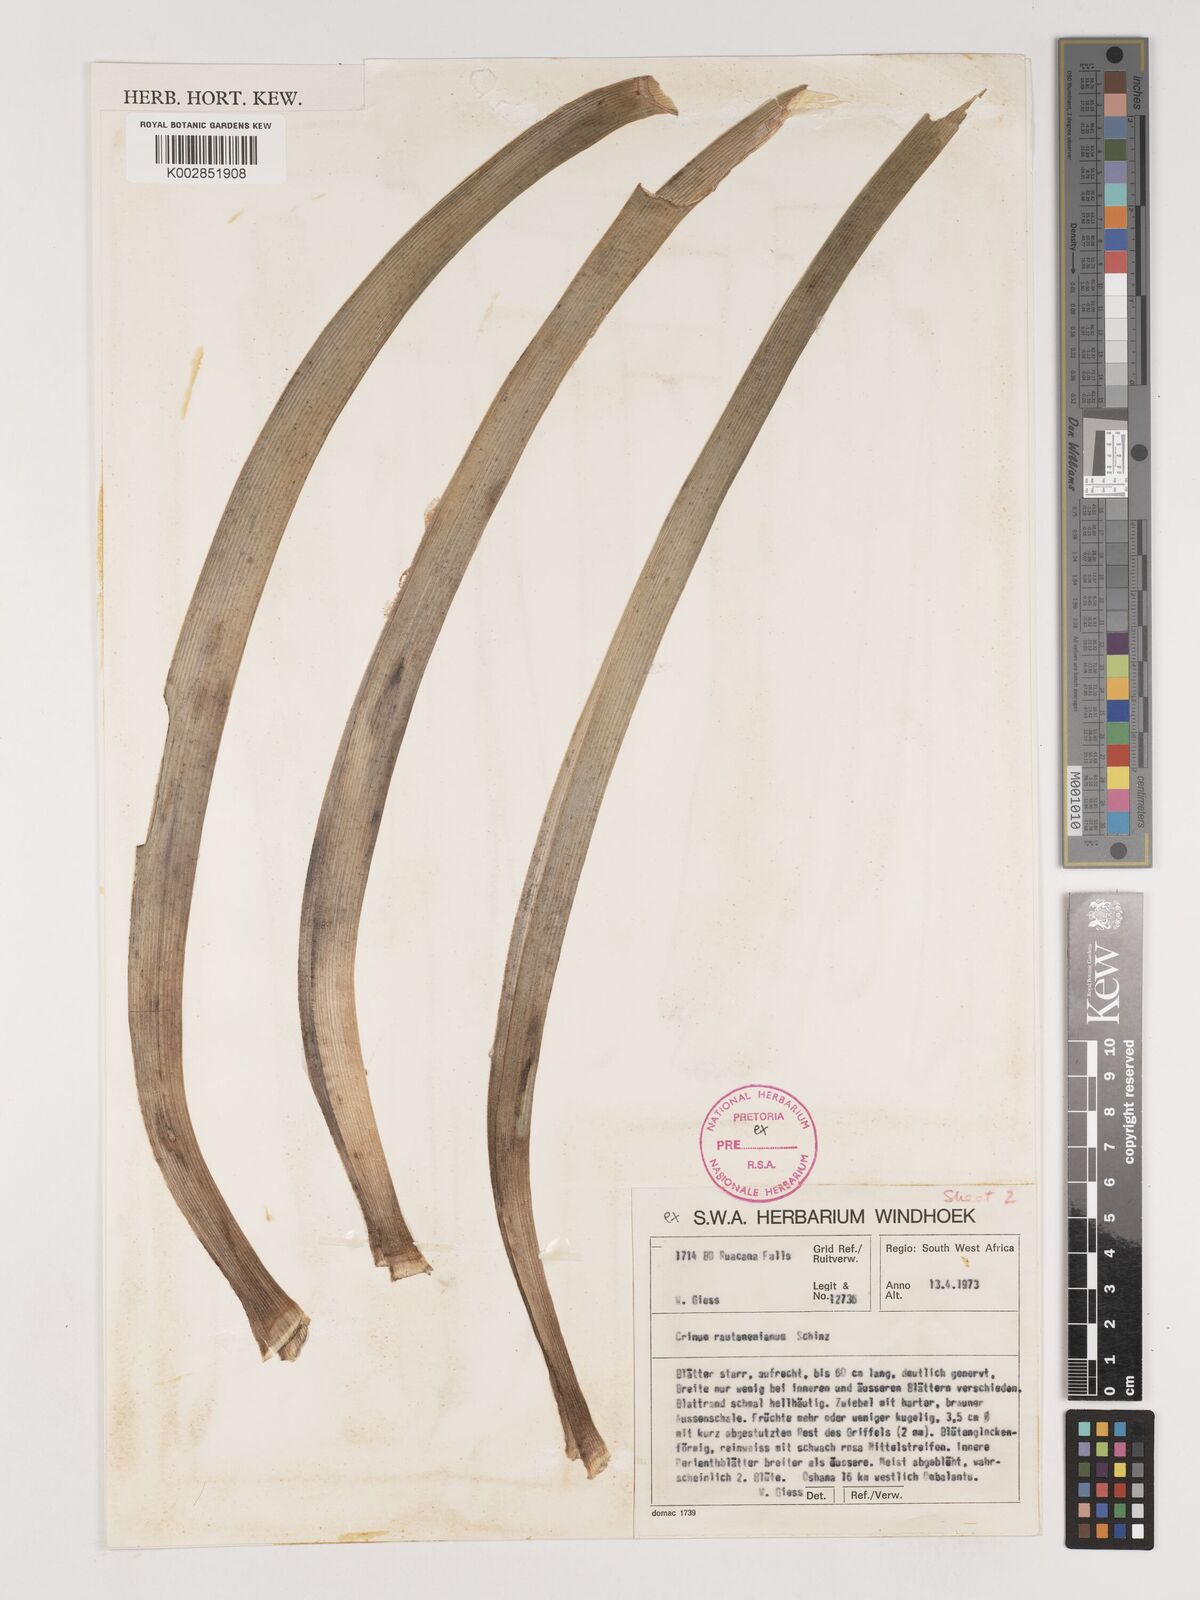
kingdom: Plantae
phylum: Tracheophyta
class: Liliopsida
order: Asparagales
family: Amaryllidaceae
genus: Crinum
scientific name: Crinum paludosum
